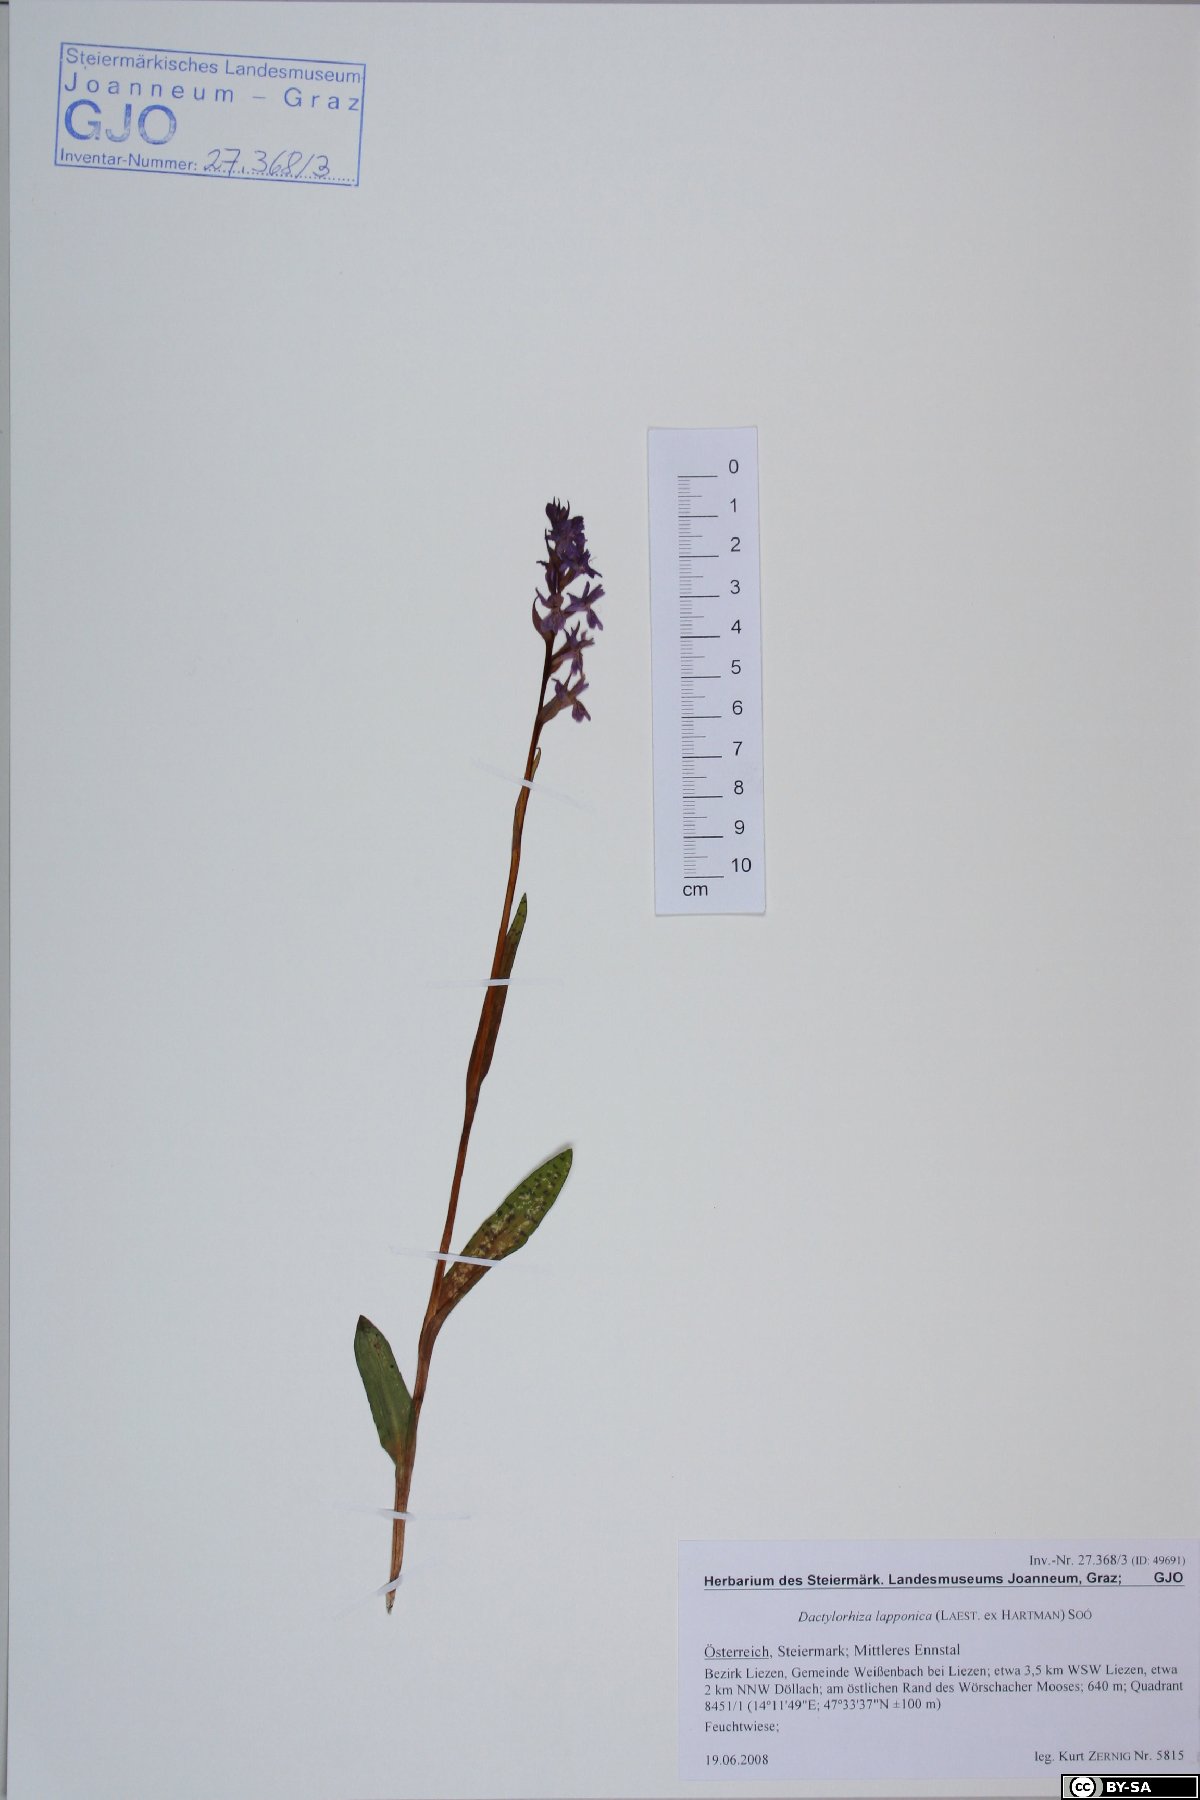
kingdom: Plantae
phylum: Tracheophyta
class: Liliopsida
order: Asparagales
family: Orchidaceae
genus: Dactylorhiza
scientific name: Dactylorhiza majalis
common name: Marsh orchid
